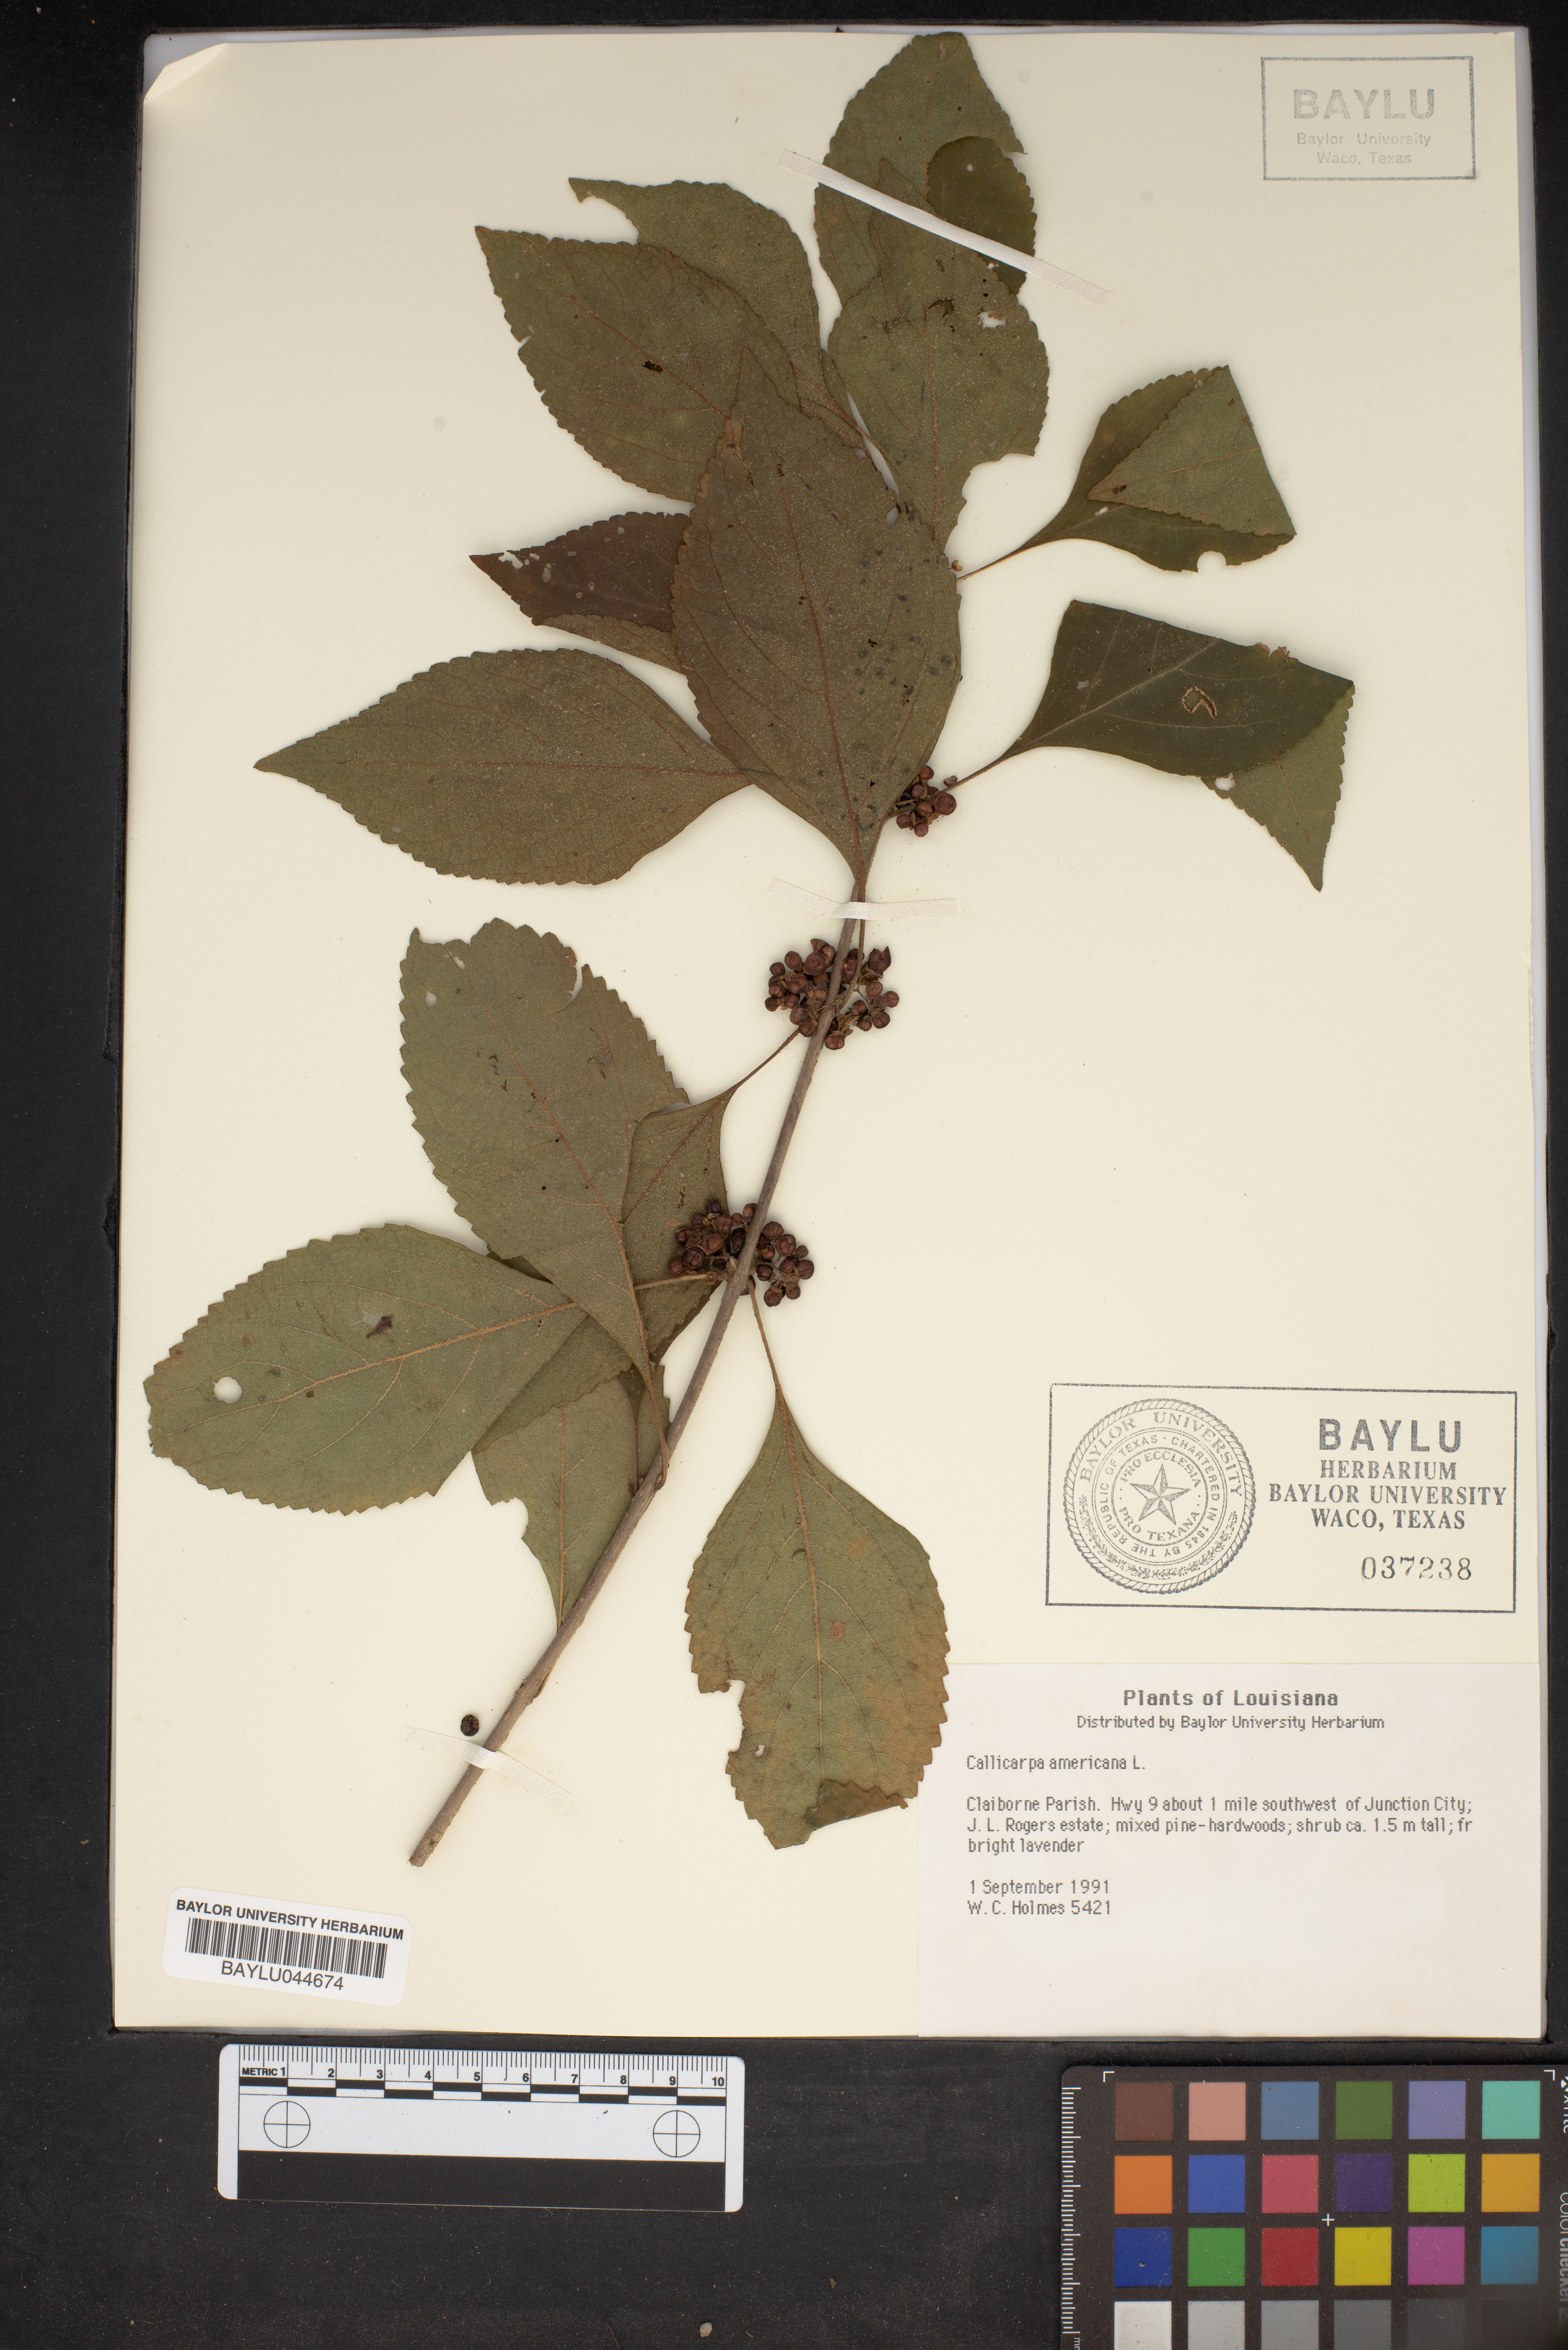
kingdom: Plantae
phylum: Tracheophyta
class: Magnoliopsida
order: Lamiales
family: Lamiaceae
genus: Callicarpa
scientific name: Callicarpa americana
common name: American beautyberry
